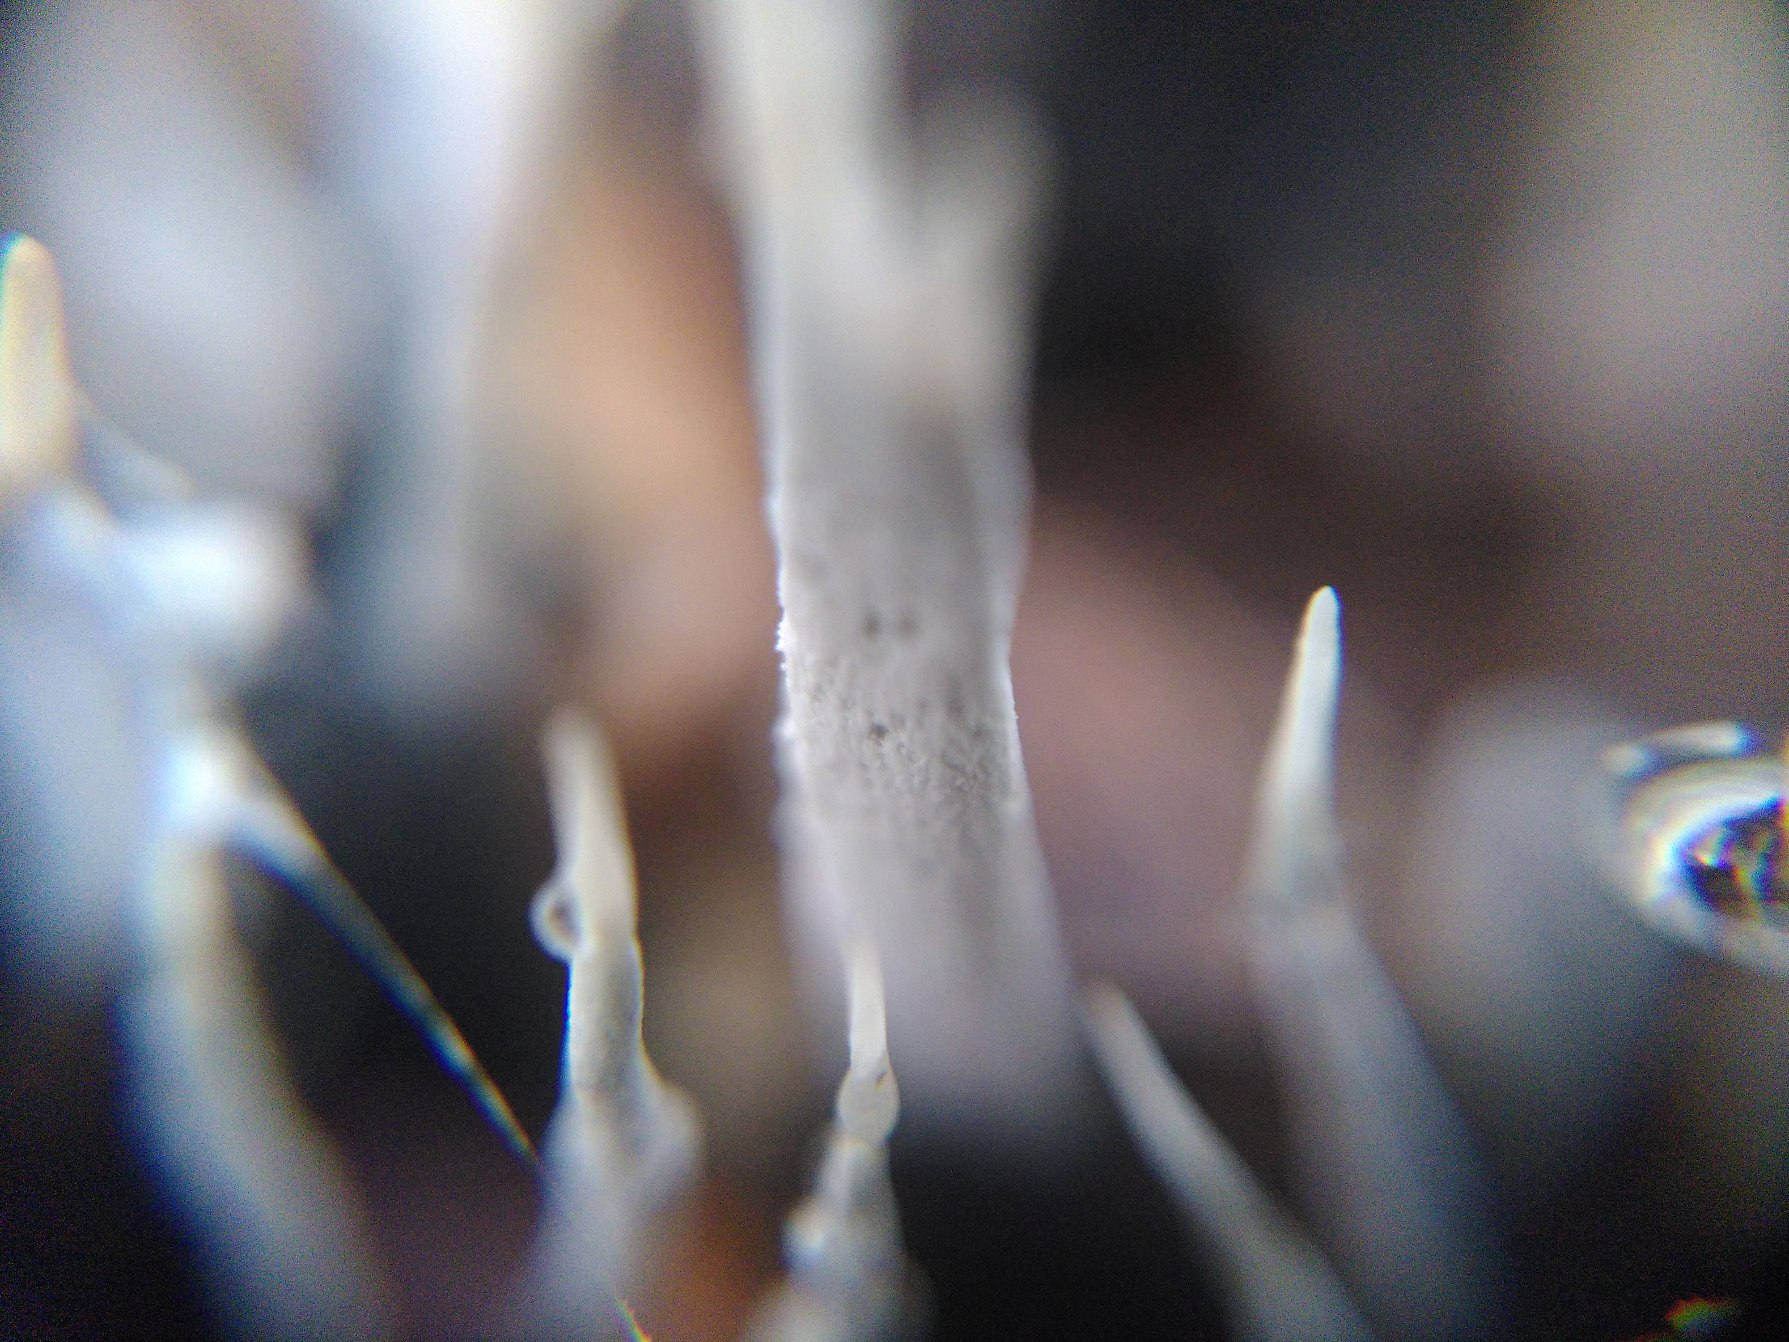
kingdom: Fungi
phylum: Ascomycota
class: Sordariomycetes
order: Xylariales
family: Xylariaceae
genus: Xylaria
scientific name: Xylaria hypoxylon
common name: Grenet stødsvamp
